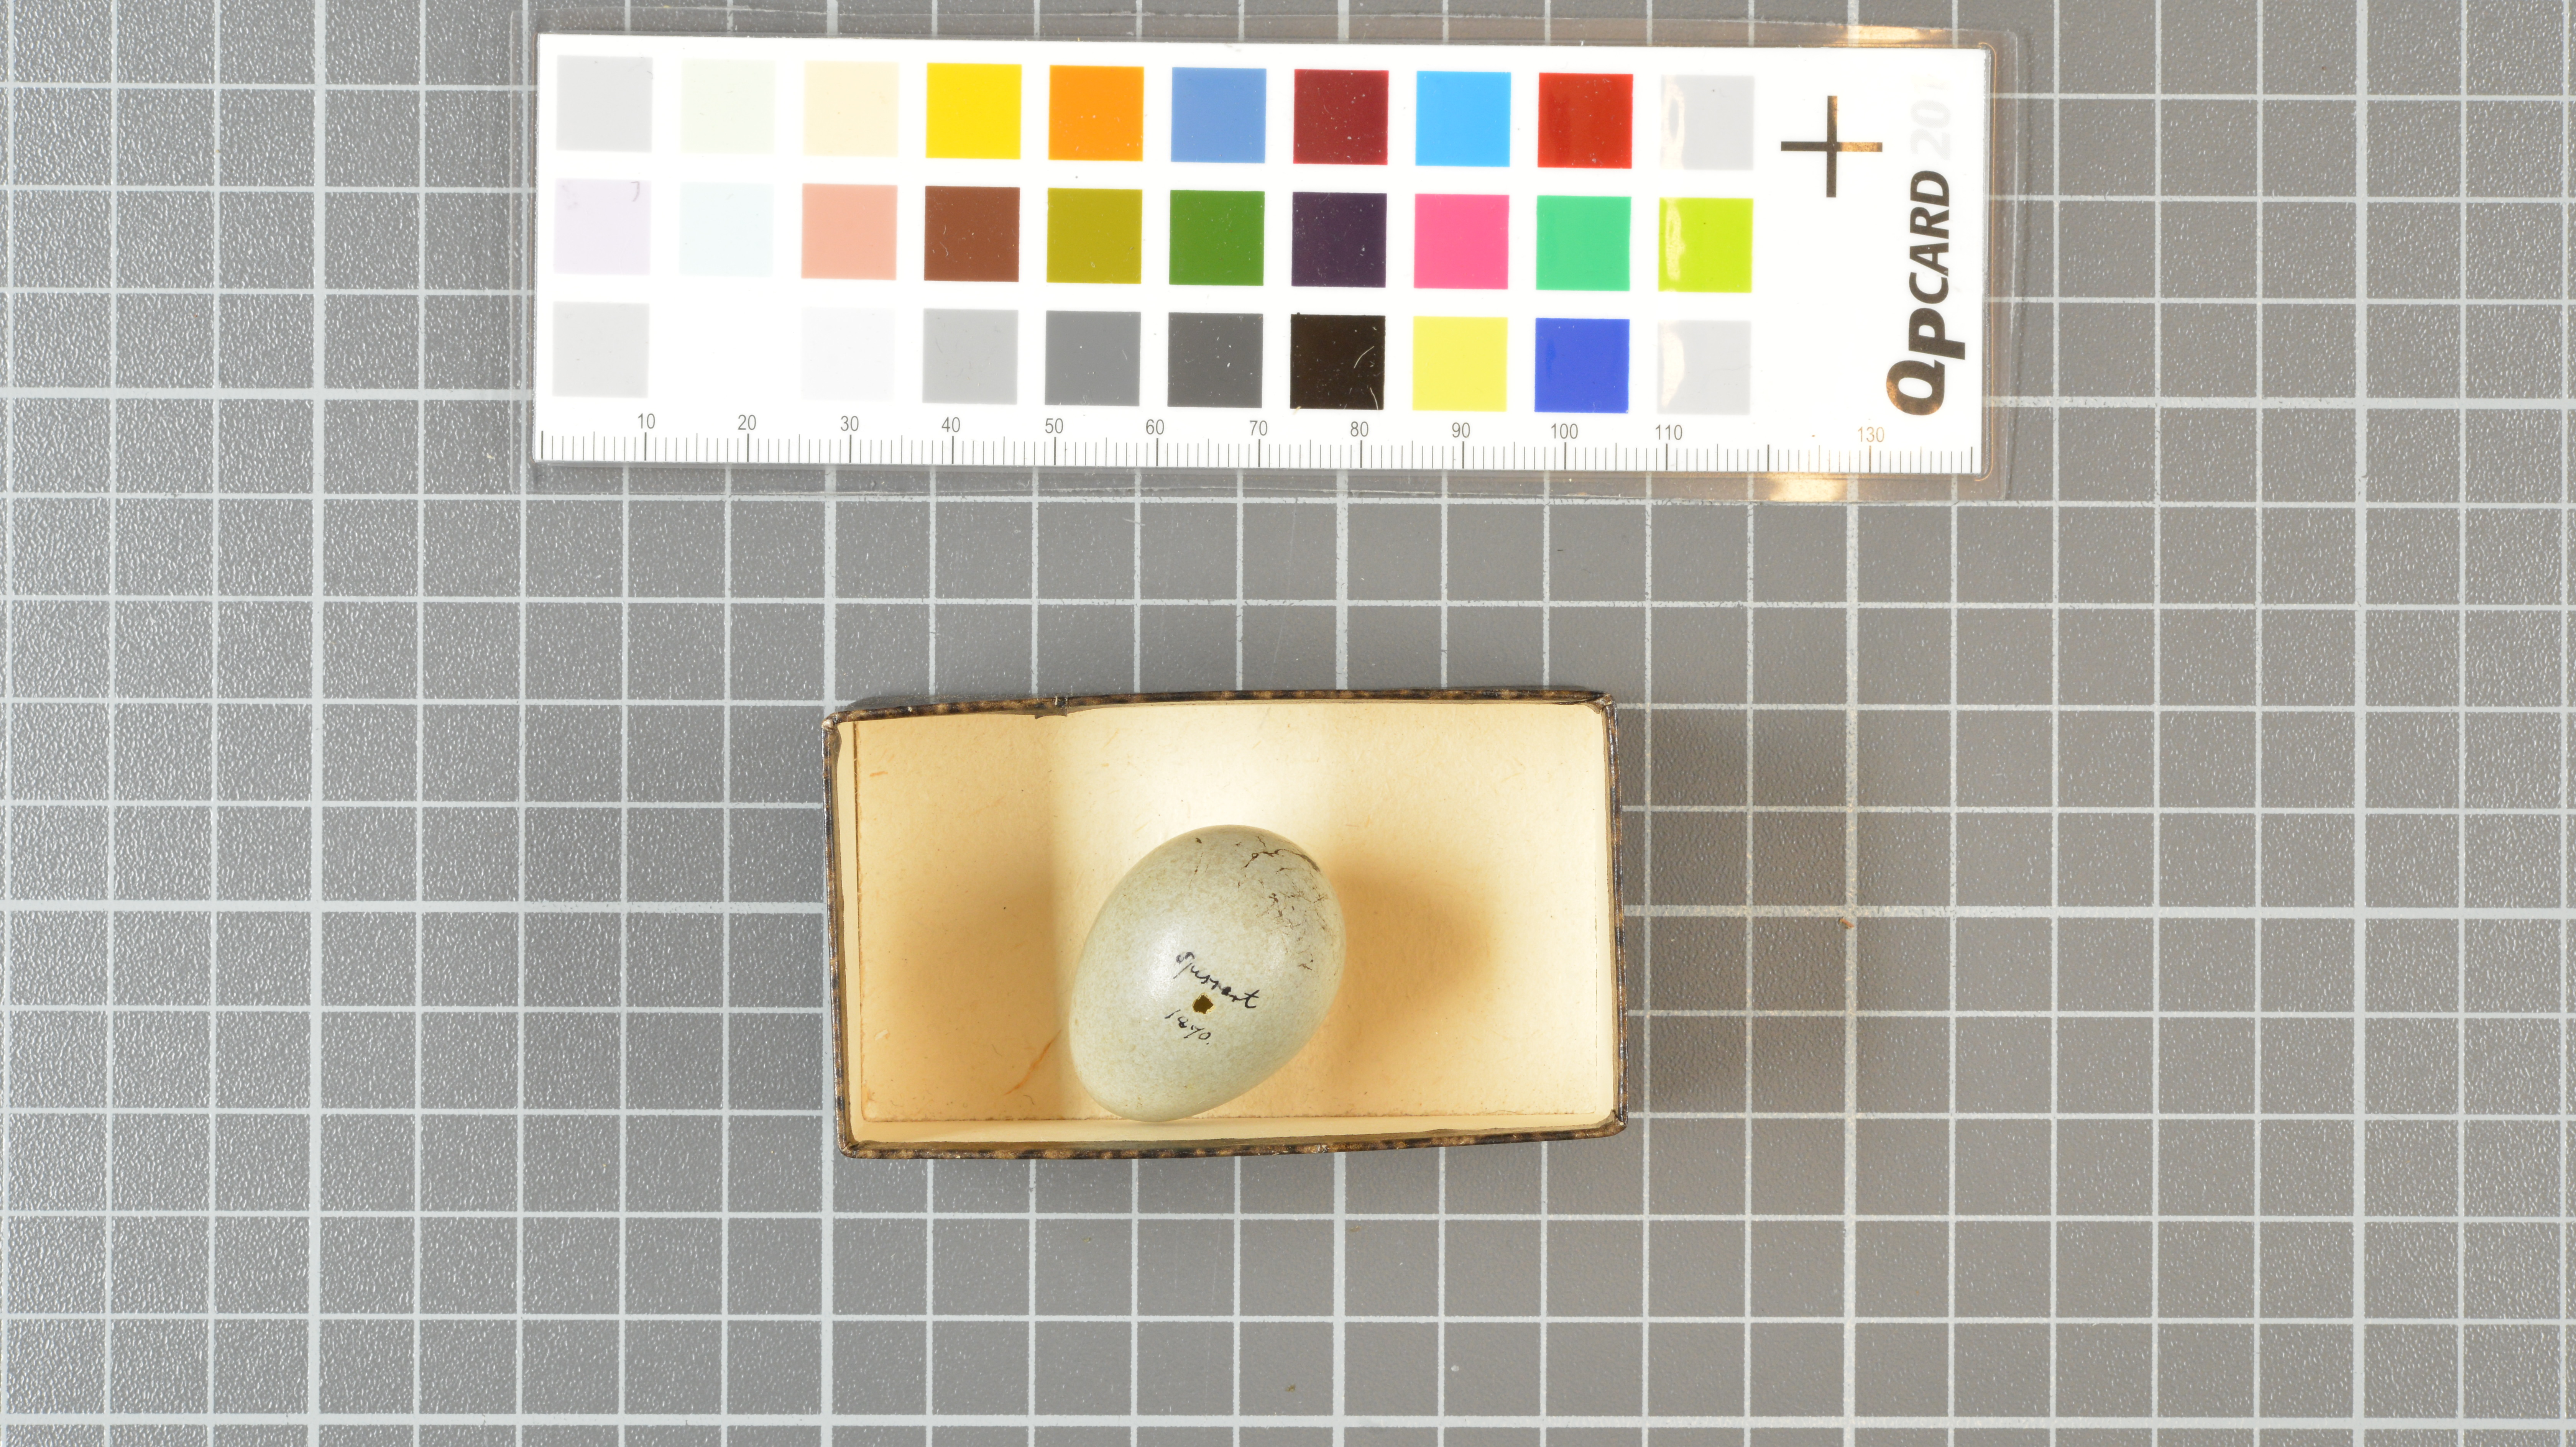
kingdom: Animalia
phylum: Chordata
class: Aves
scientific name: Aves
